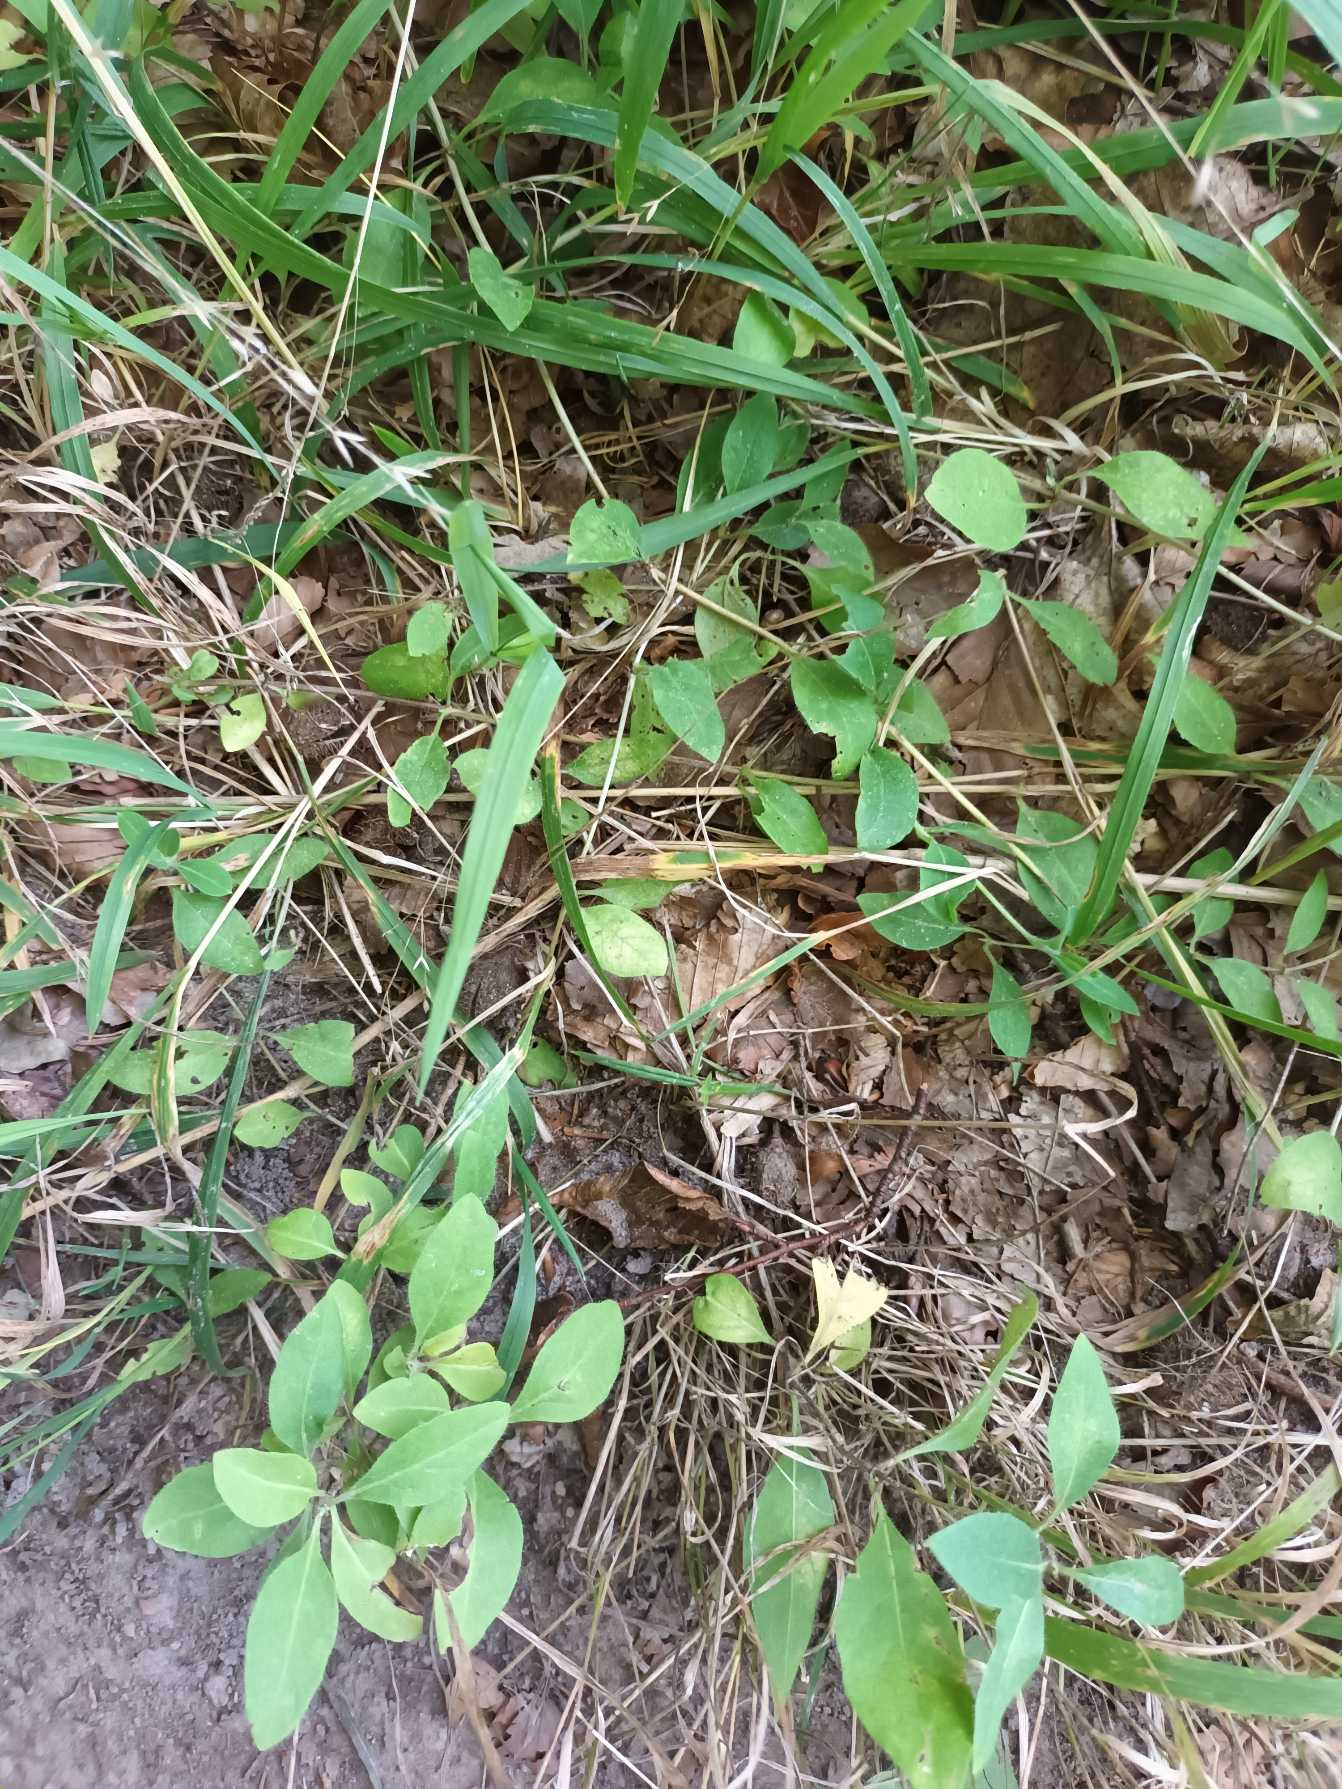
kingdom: Plantae
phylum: Tracheophyta
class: Magnoliopsida
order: Dipsacales
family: Caprifoliaceae
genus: Lonicera
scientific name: Lonicera periclymenum
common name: Almindelig gedeblad
